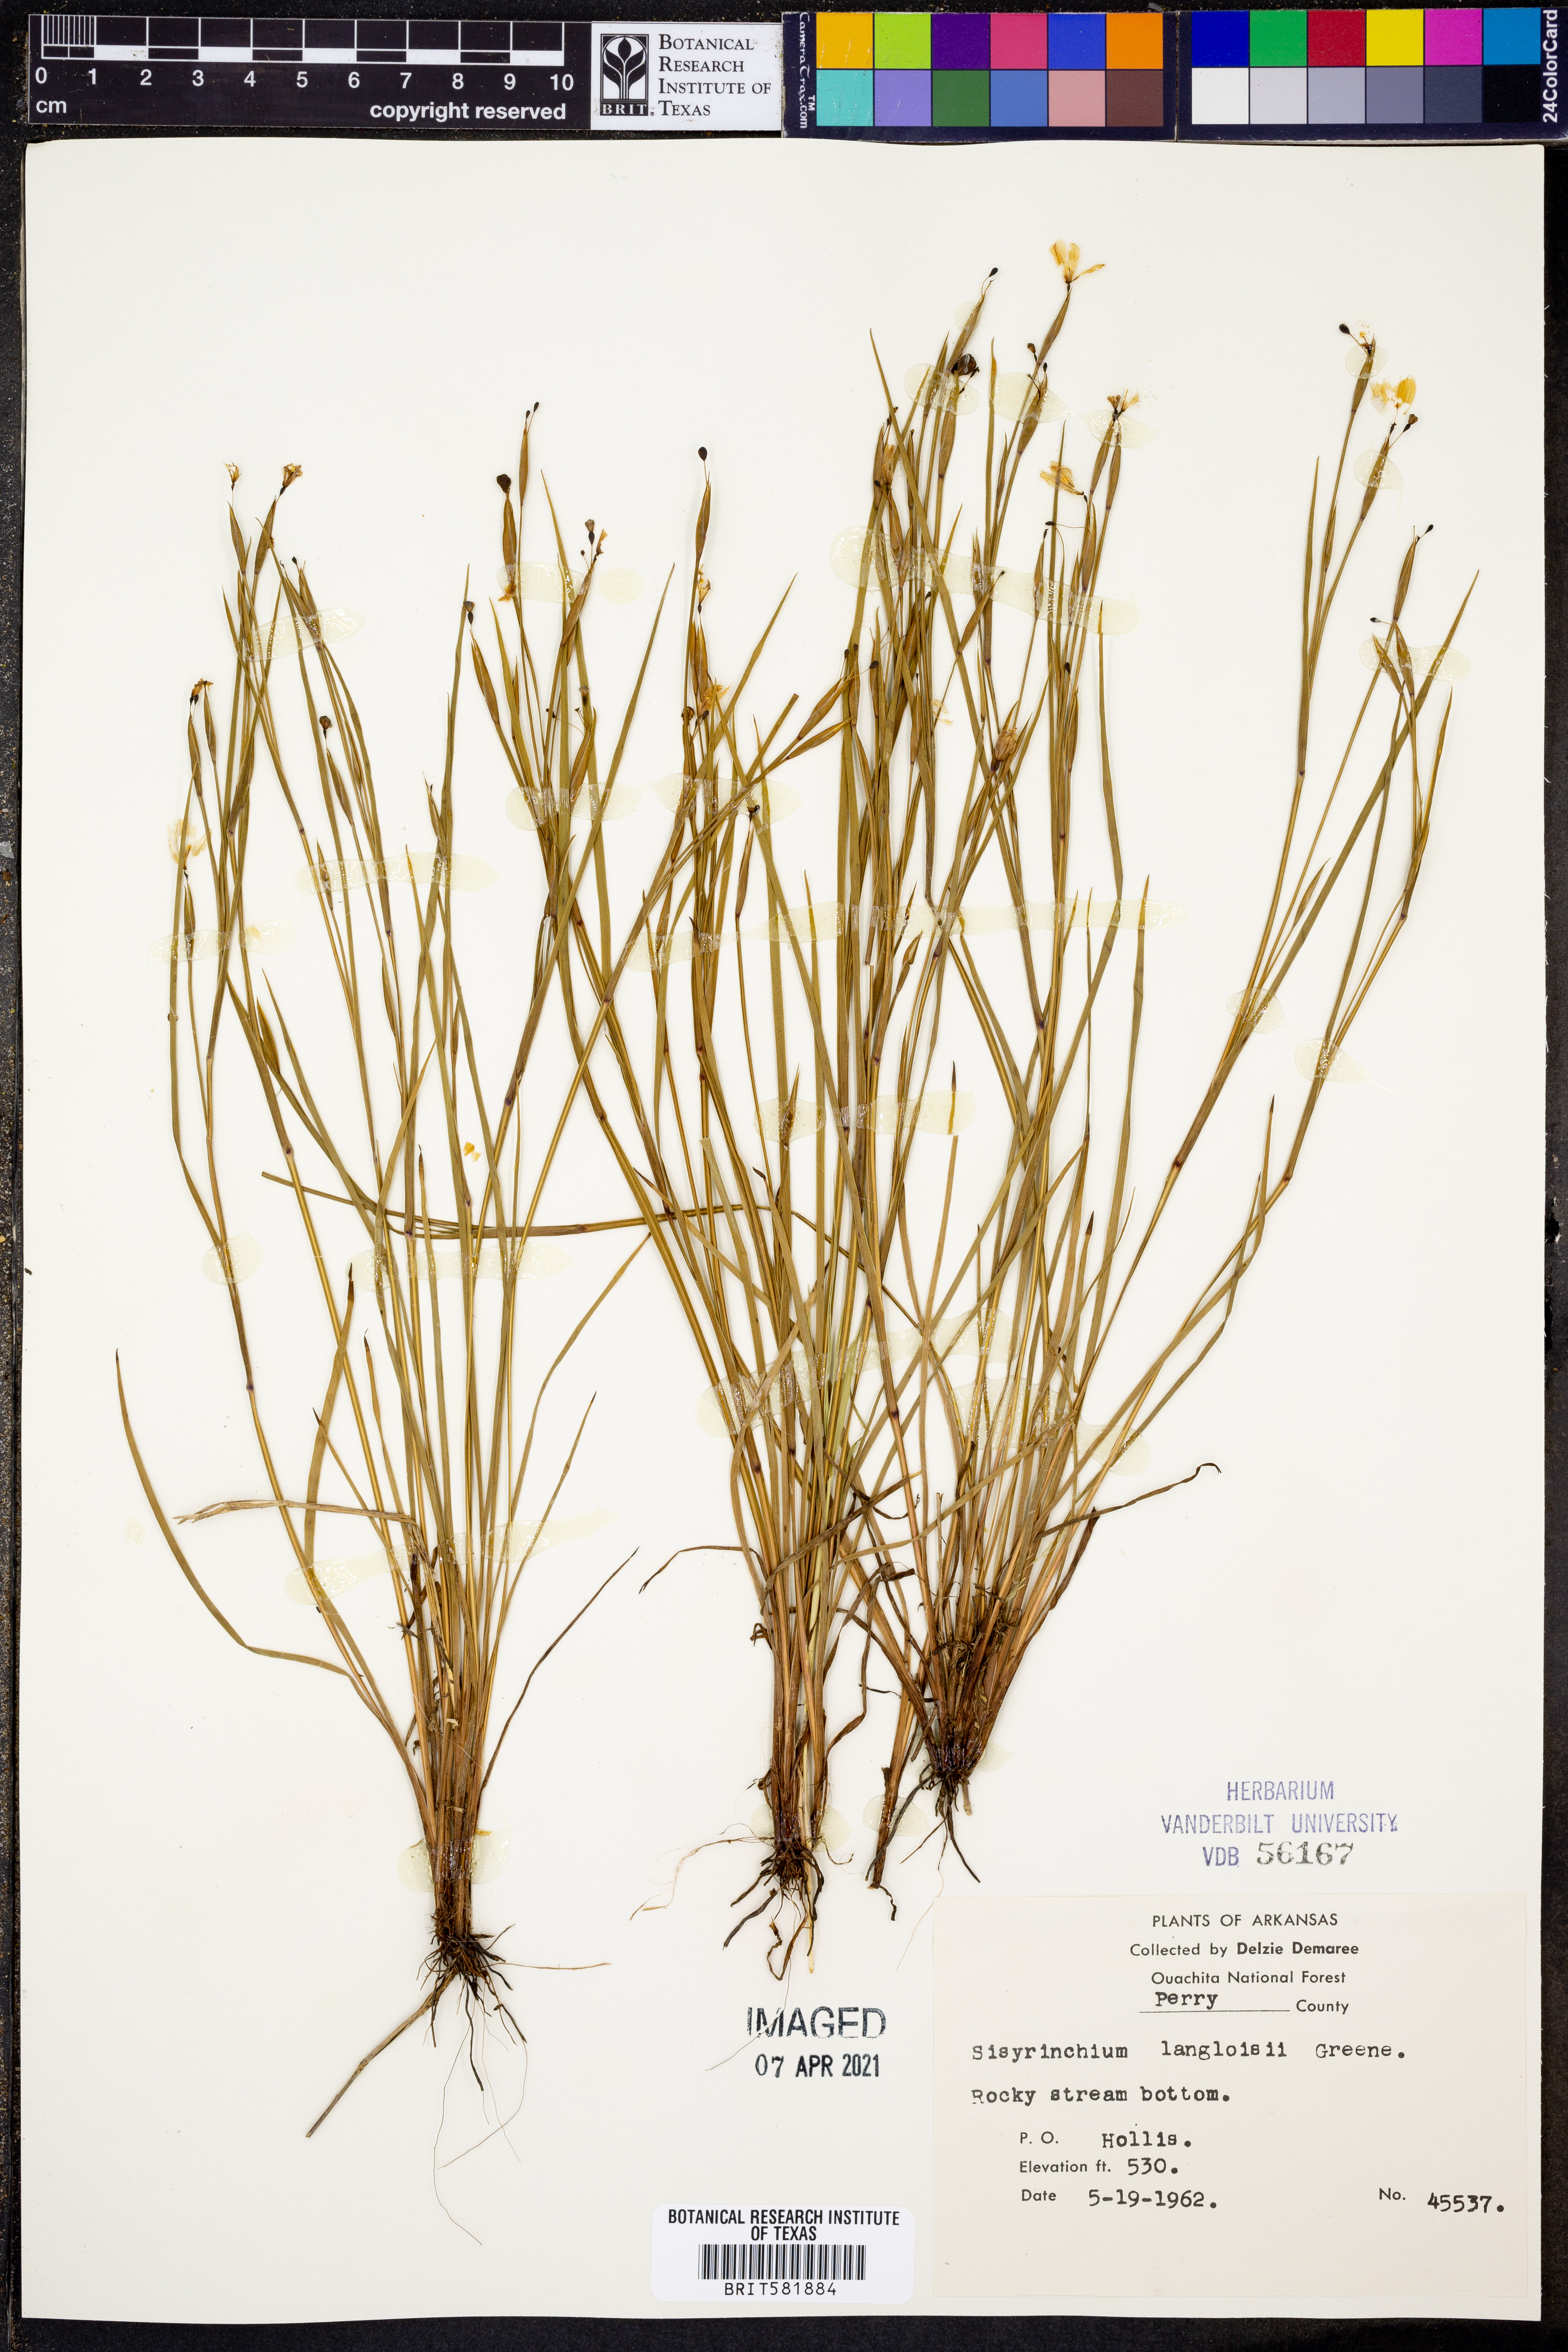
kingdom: Plantae
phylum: Tracheophyta
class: Liliopsida
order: Asparagales
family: Iridaceae
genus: Sisyrinchium
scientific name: Sisyrinchium langloisii
